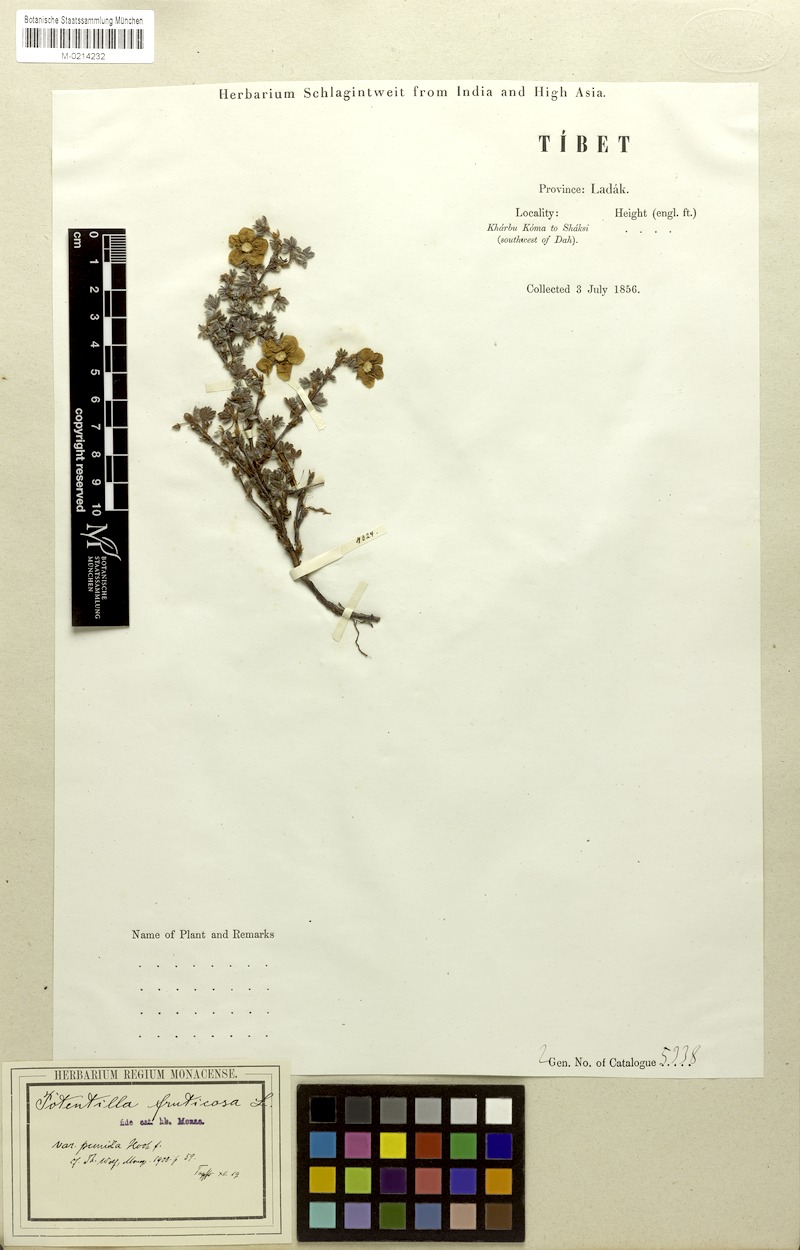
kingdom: Plantae
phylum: Tracheophyta
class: Magnoliopsida
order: Rosales
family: Rosaceae
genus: Dasiphora
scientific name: Dasiphora dryadanthoides
